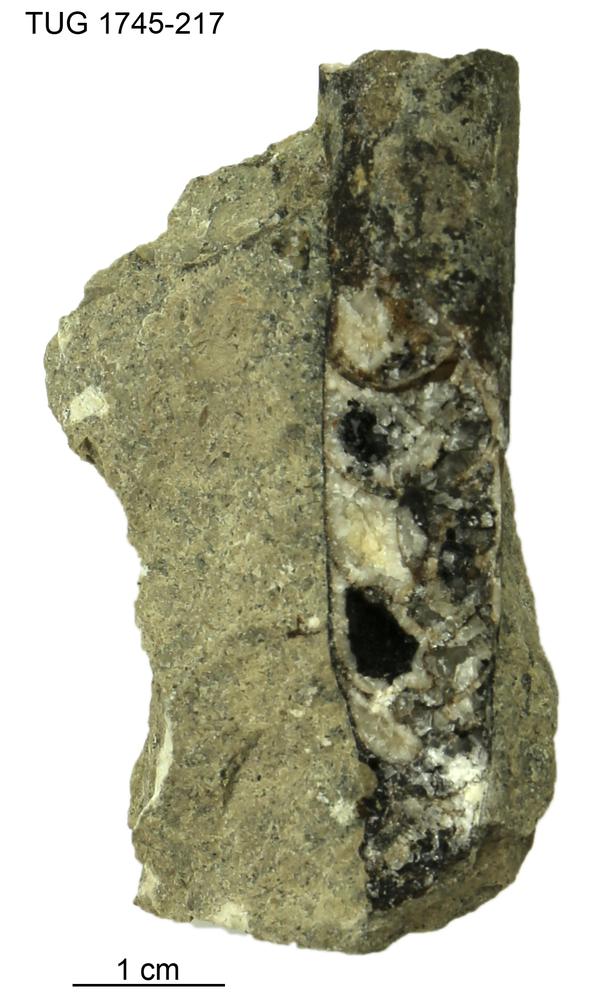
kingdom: Animalia
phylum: Mollusca
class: Cephalopoda
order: Orthocerida
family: Orthoceratidae
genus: Orthoceras
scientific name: Orthoceras
